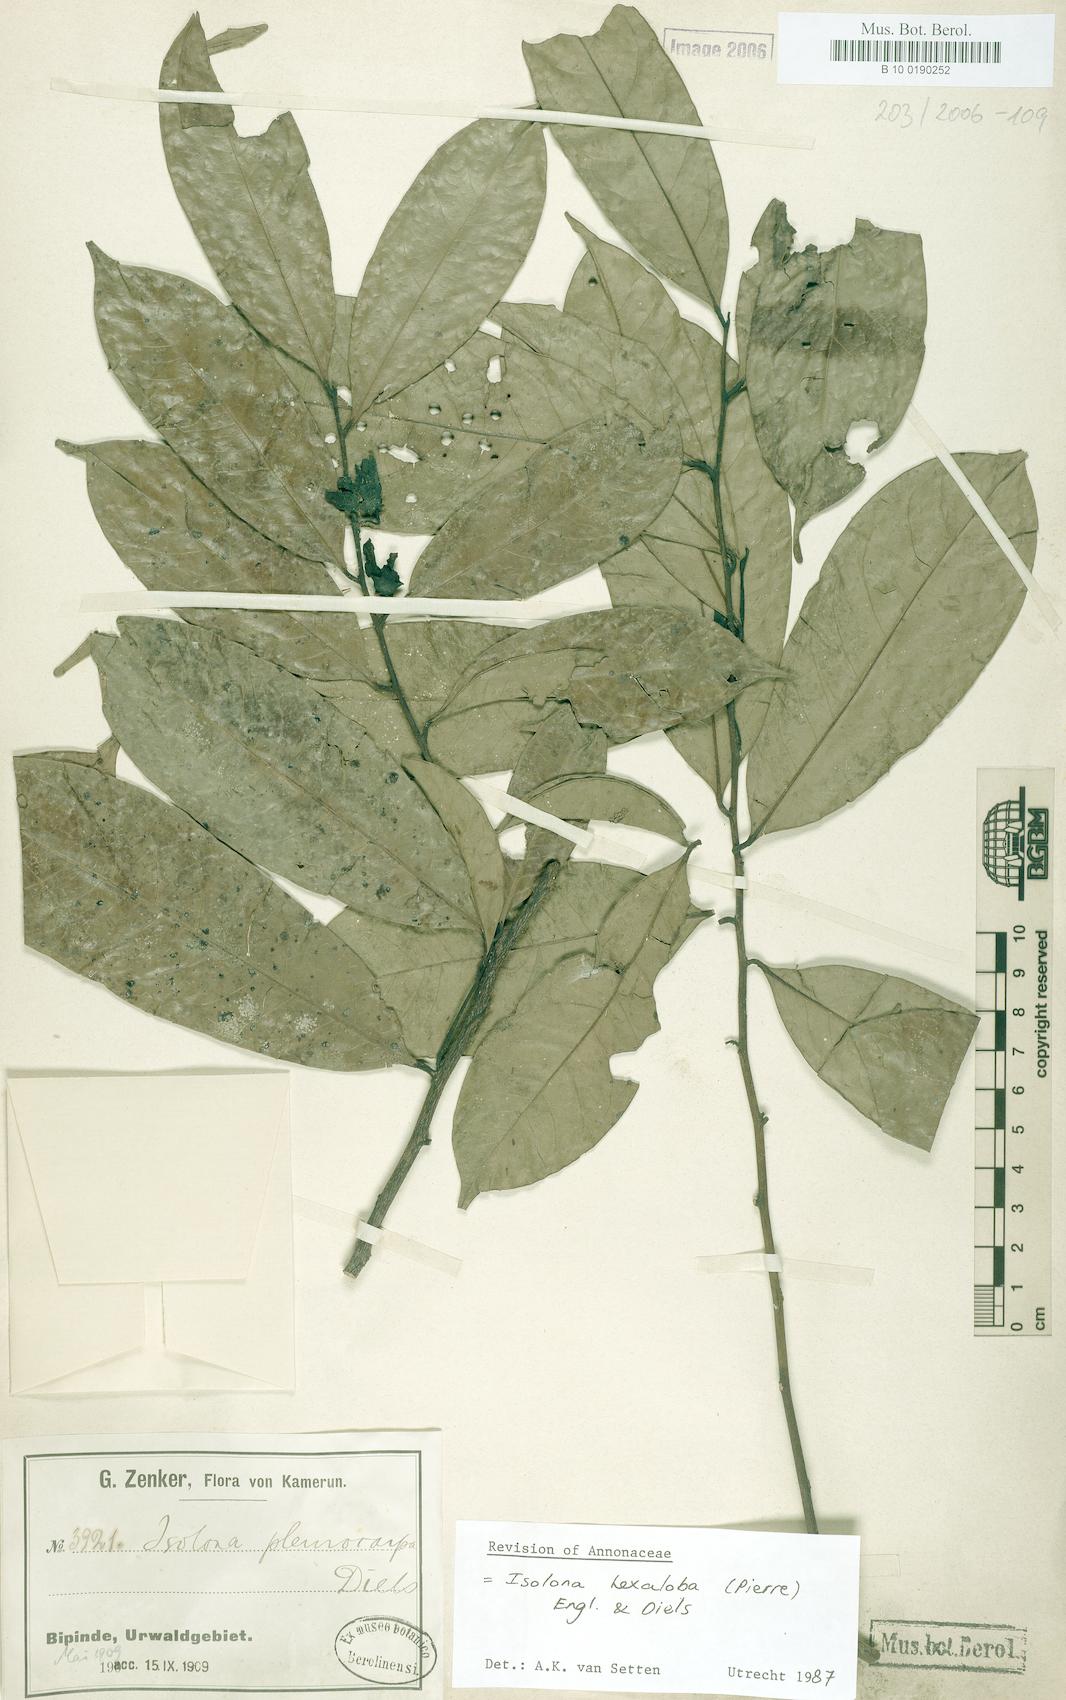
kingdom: Plantae
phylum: Tracheophyta
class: Magnoliopsida
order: Magnoliales
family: Annonaceae
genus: Isolona
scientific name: Isolona hexaloba
